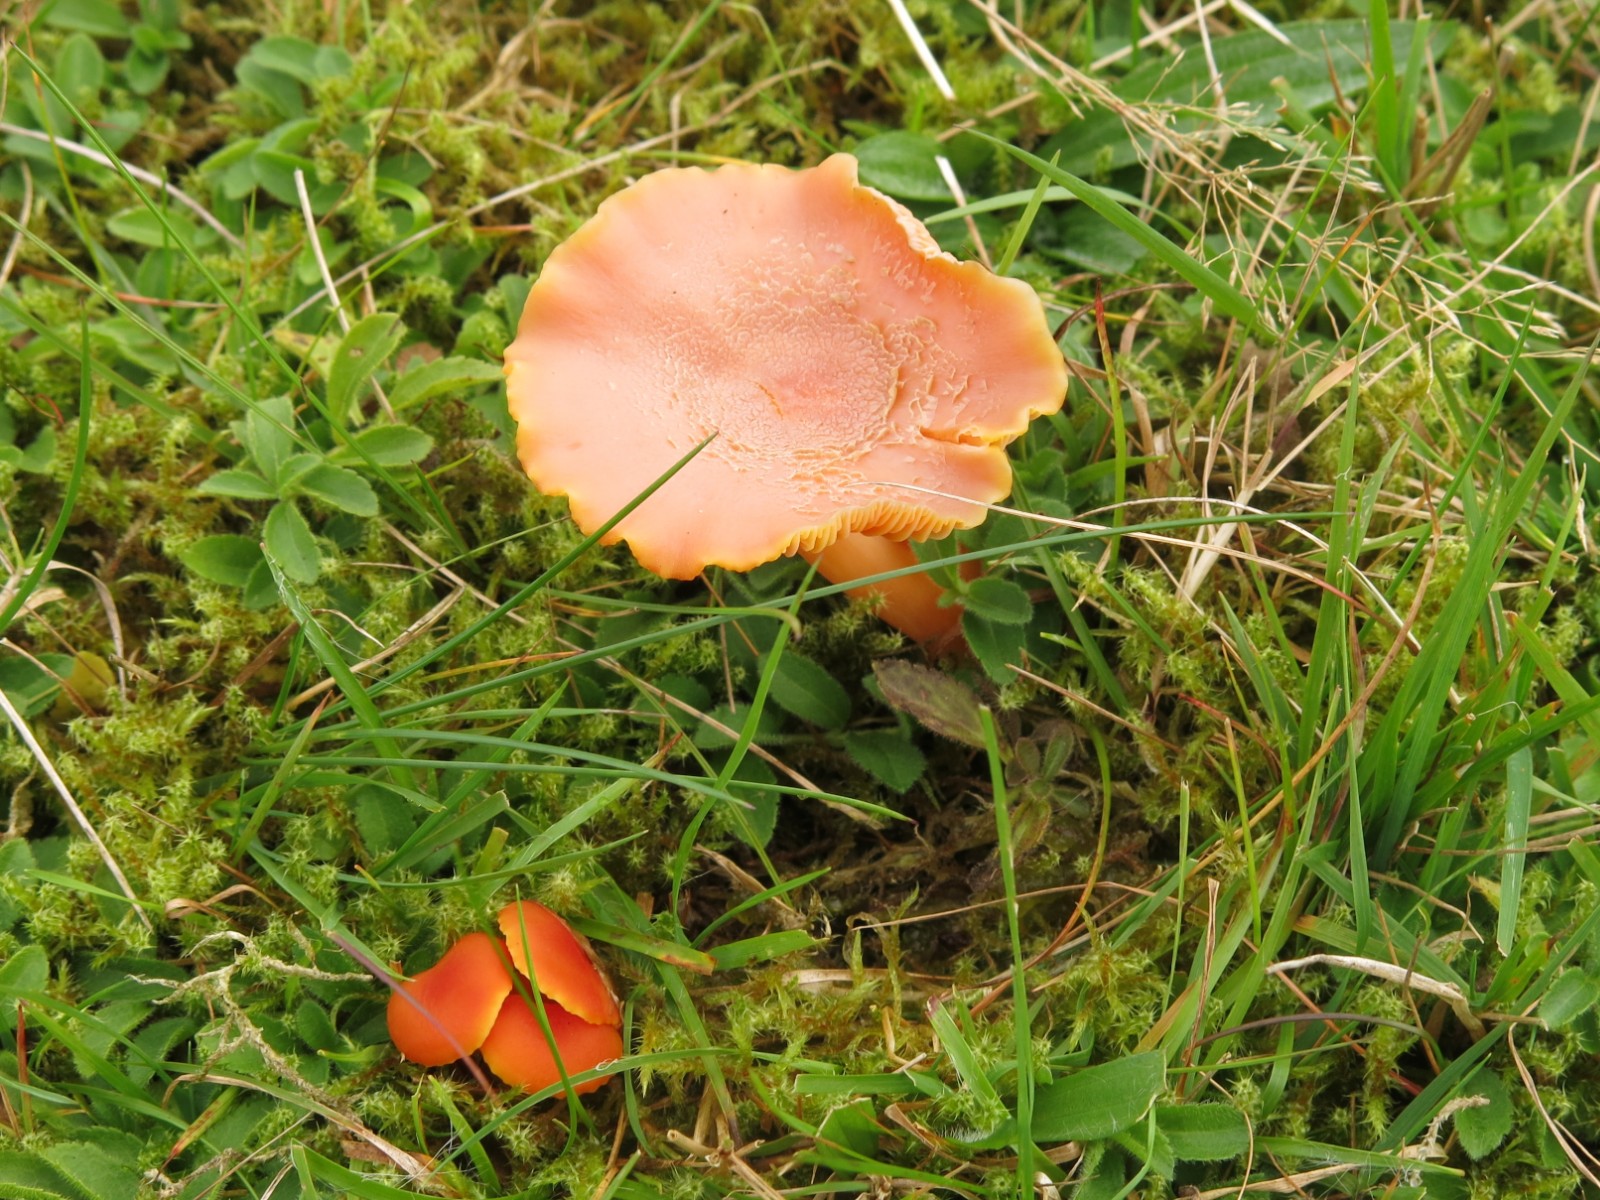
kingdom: Fungi
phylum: Basidiomycota
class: Agaricomycetes
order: Agaricales
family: Hygrophoraceae
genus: Hygrocybe
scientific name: Hygrocybe miniata
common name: mønje-vokshat
